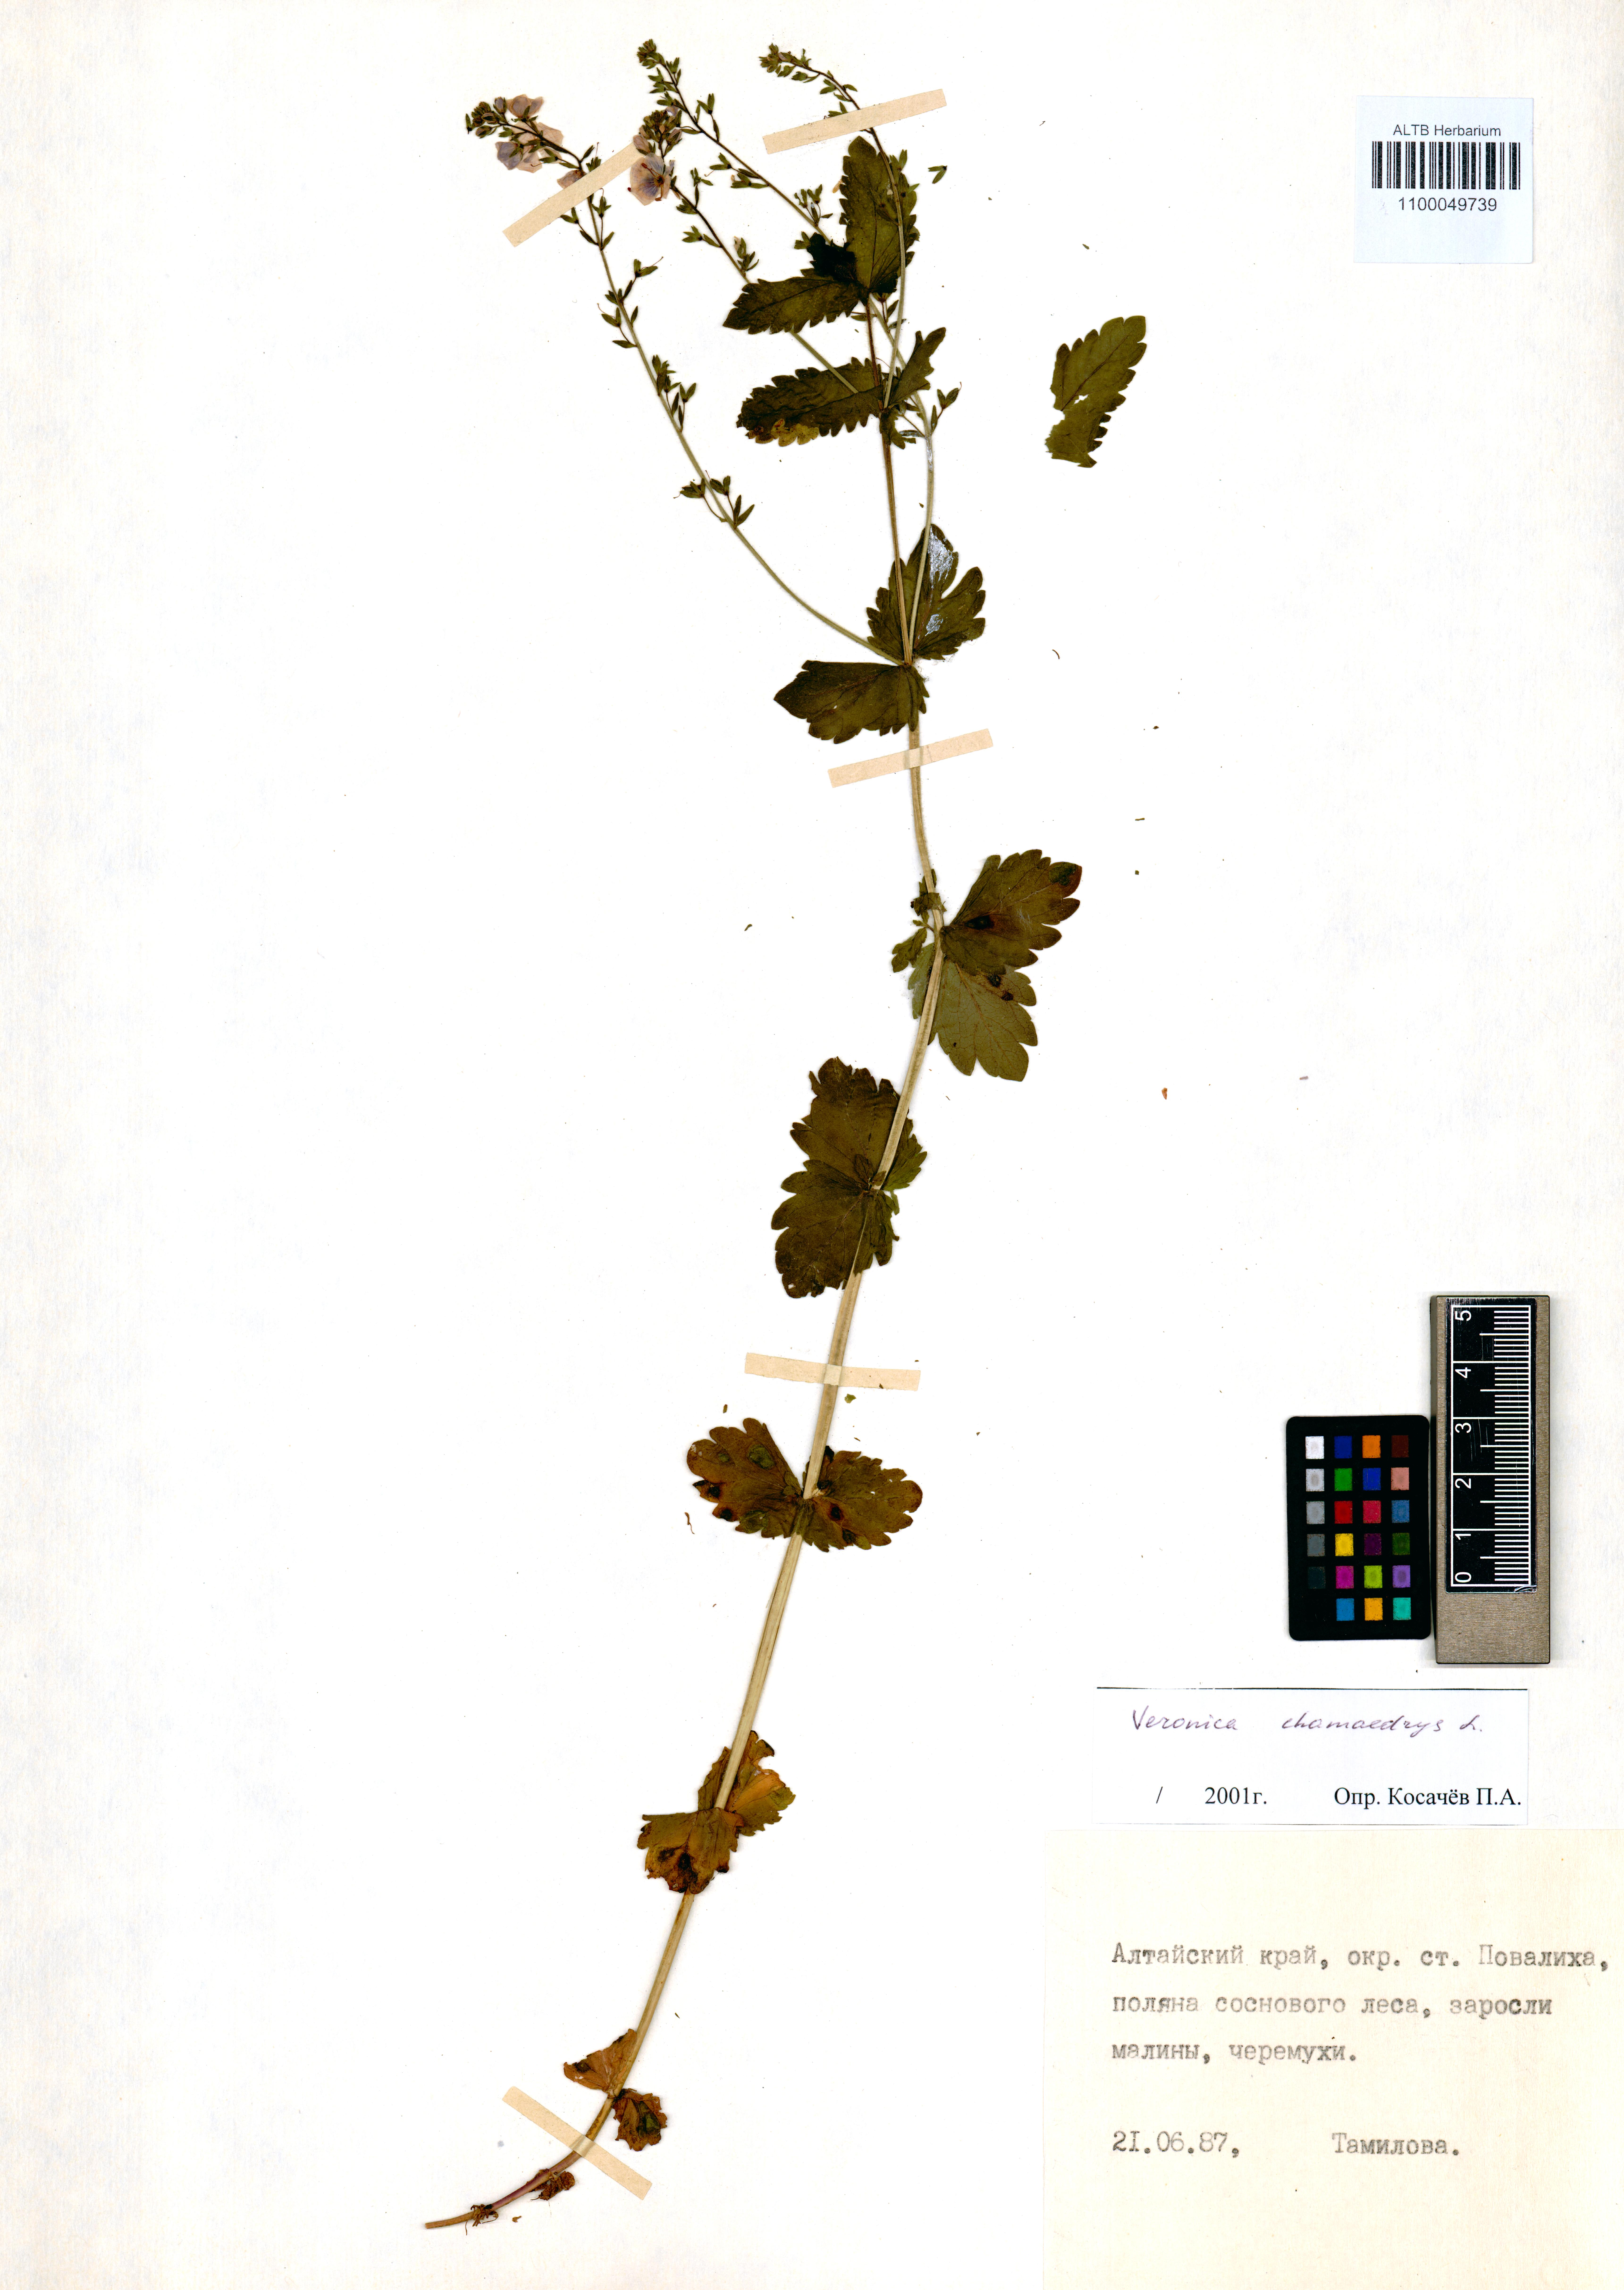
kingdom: Plantae
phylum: Tracheophyta
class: Magnoliopsida
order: Lamiales
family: Plantaginaceae
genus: Veronica
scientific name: Veronica chamaedrys
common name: Germander speedwell
